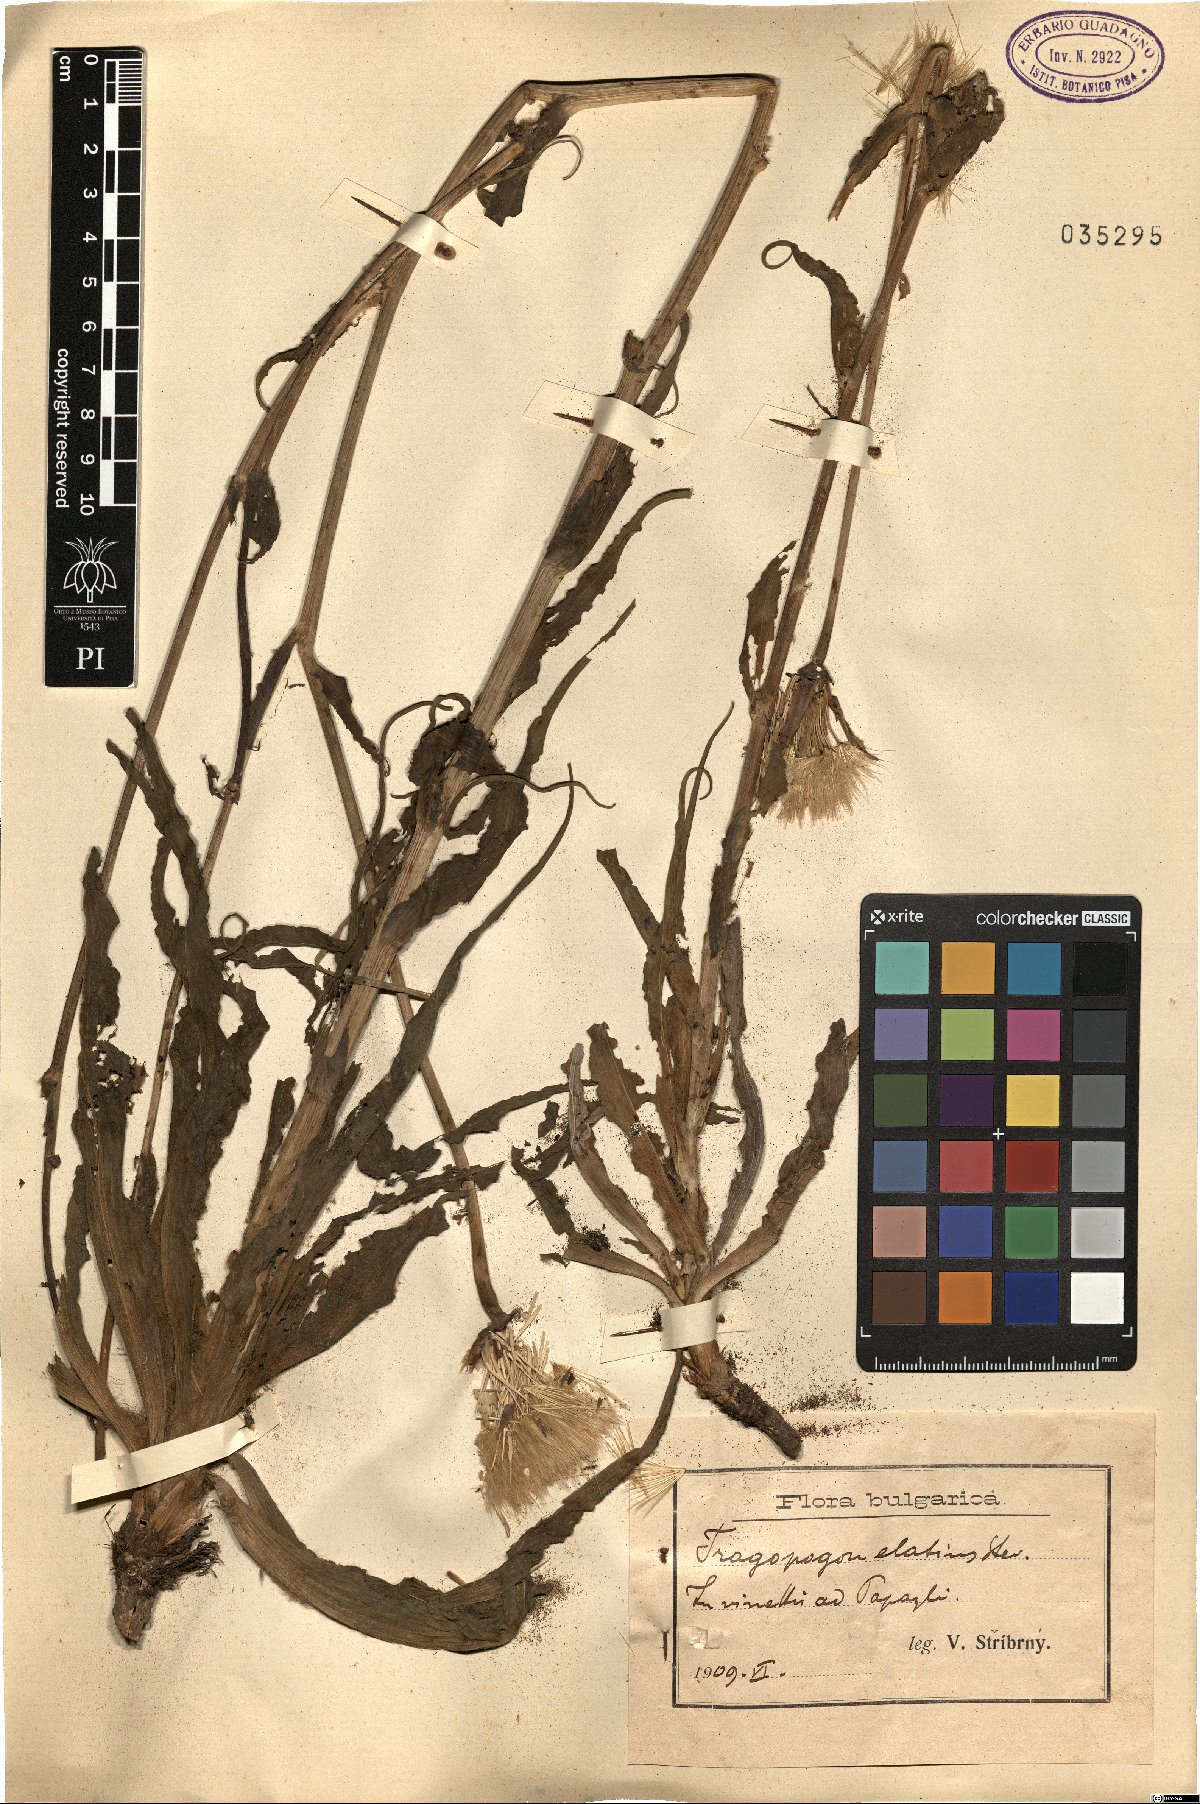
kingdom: Plantae
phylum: Tracheophyta
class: Magnoliopsida
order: Asterales
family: Asteraceae
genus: Tragopogon
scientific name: Tragopogon elatior
